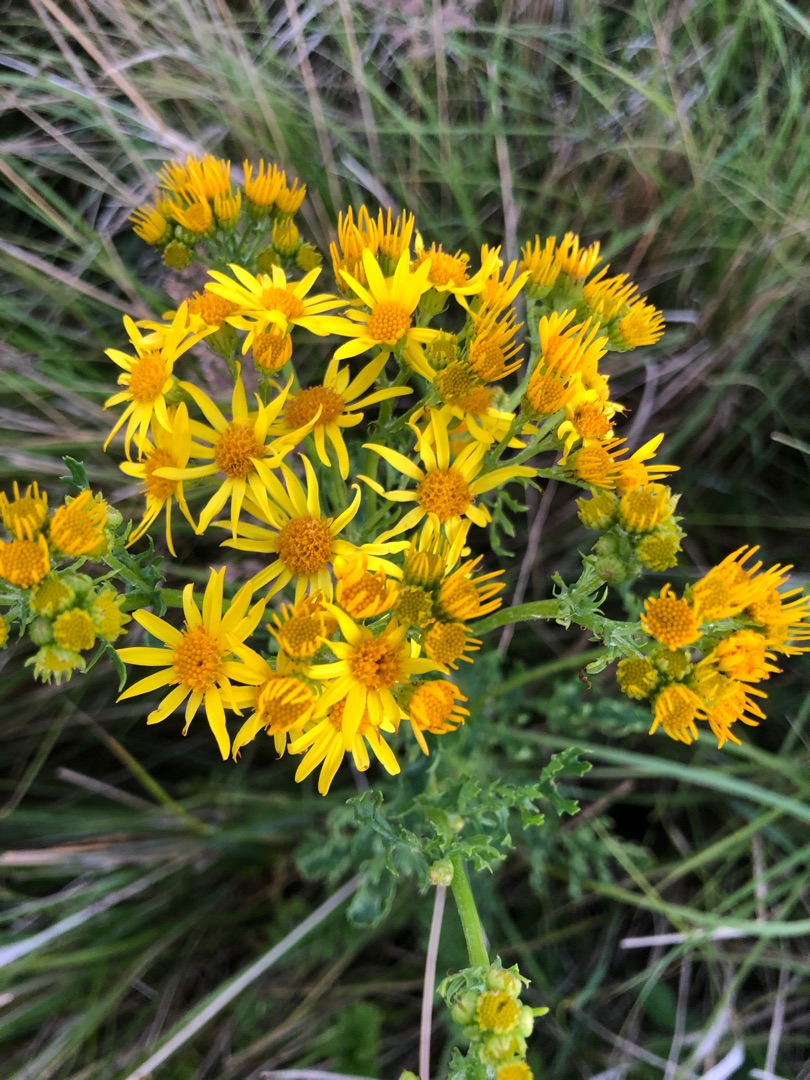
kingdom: Plantae
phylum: Tracheophyta
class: Magnoliopsida
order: Asterales
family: Asteraceae
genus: Jacobaea
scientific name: Jacobaea vulgaris
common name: Eng-brandbæger
